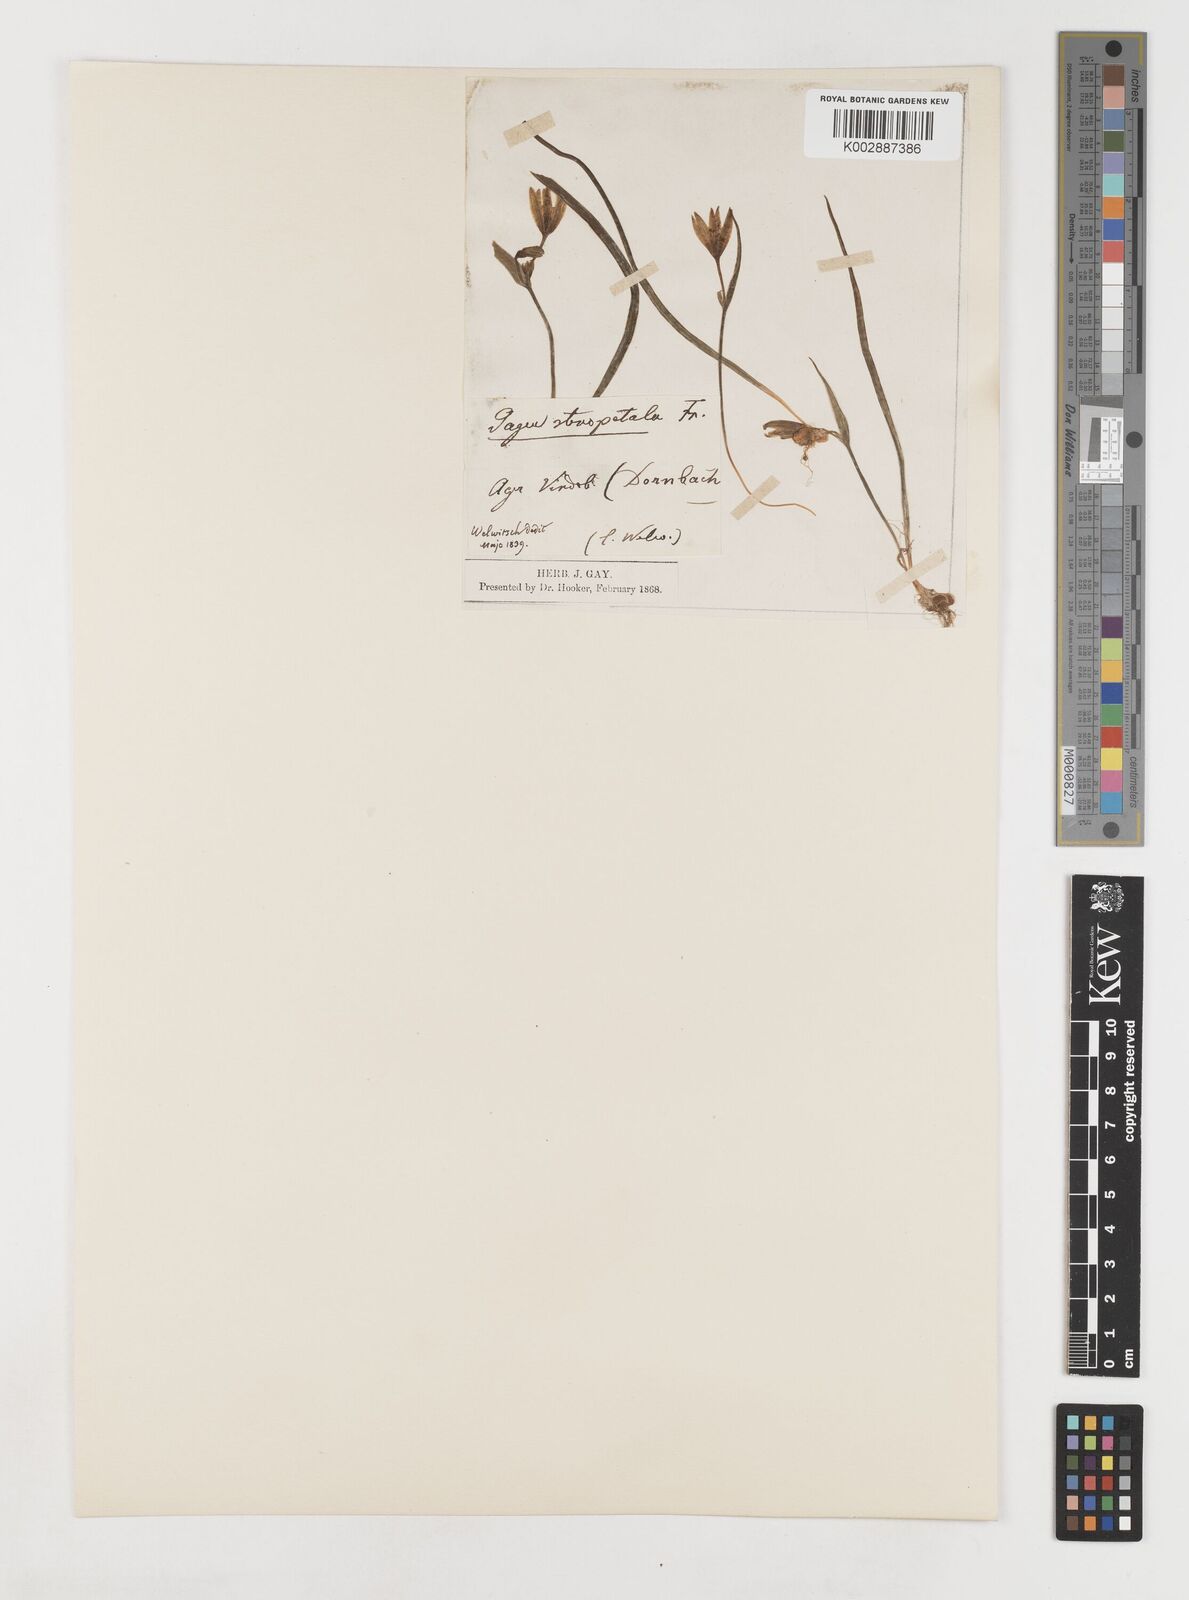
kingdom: Plantae
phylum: Tracheophyta
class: Liliopsida
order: Liliales
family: Liliaceae
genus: Gagea
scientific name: Gagea pratensis
